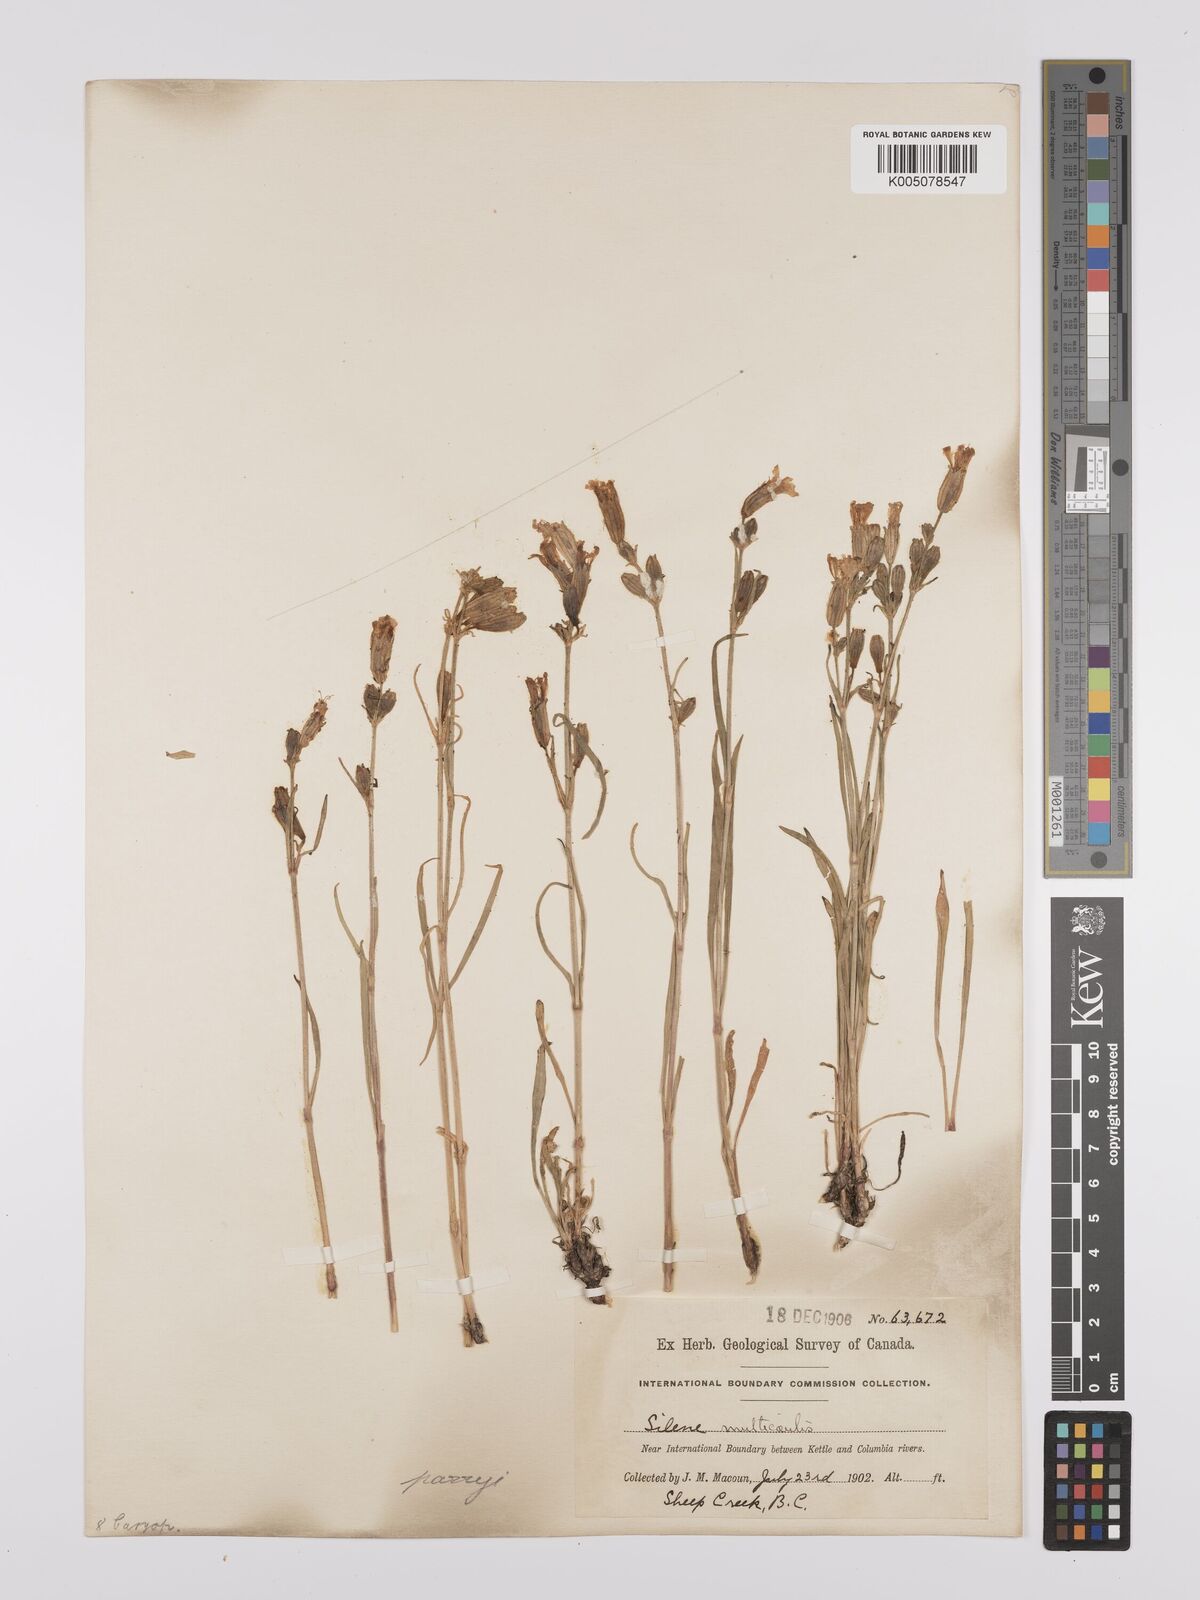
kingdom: Plantae
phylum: Tracheophyta
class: Magnoliopsida
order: Caryophyllales
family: Caryophyllaceae
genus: Silene
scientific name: Silene parryi
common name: Parry's campion
